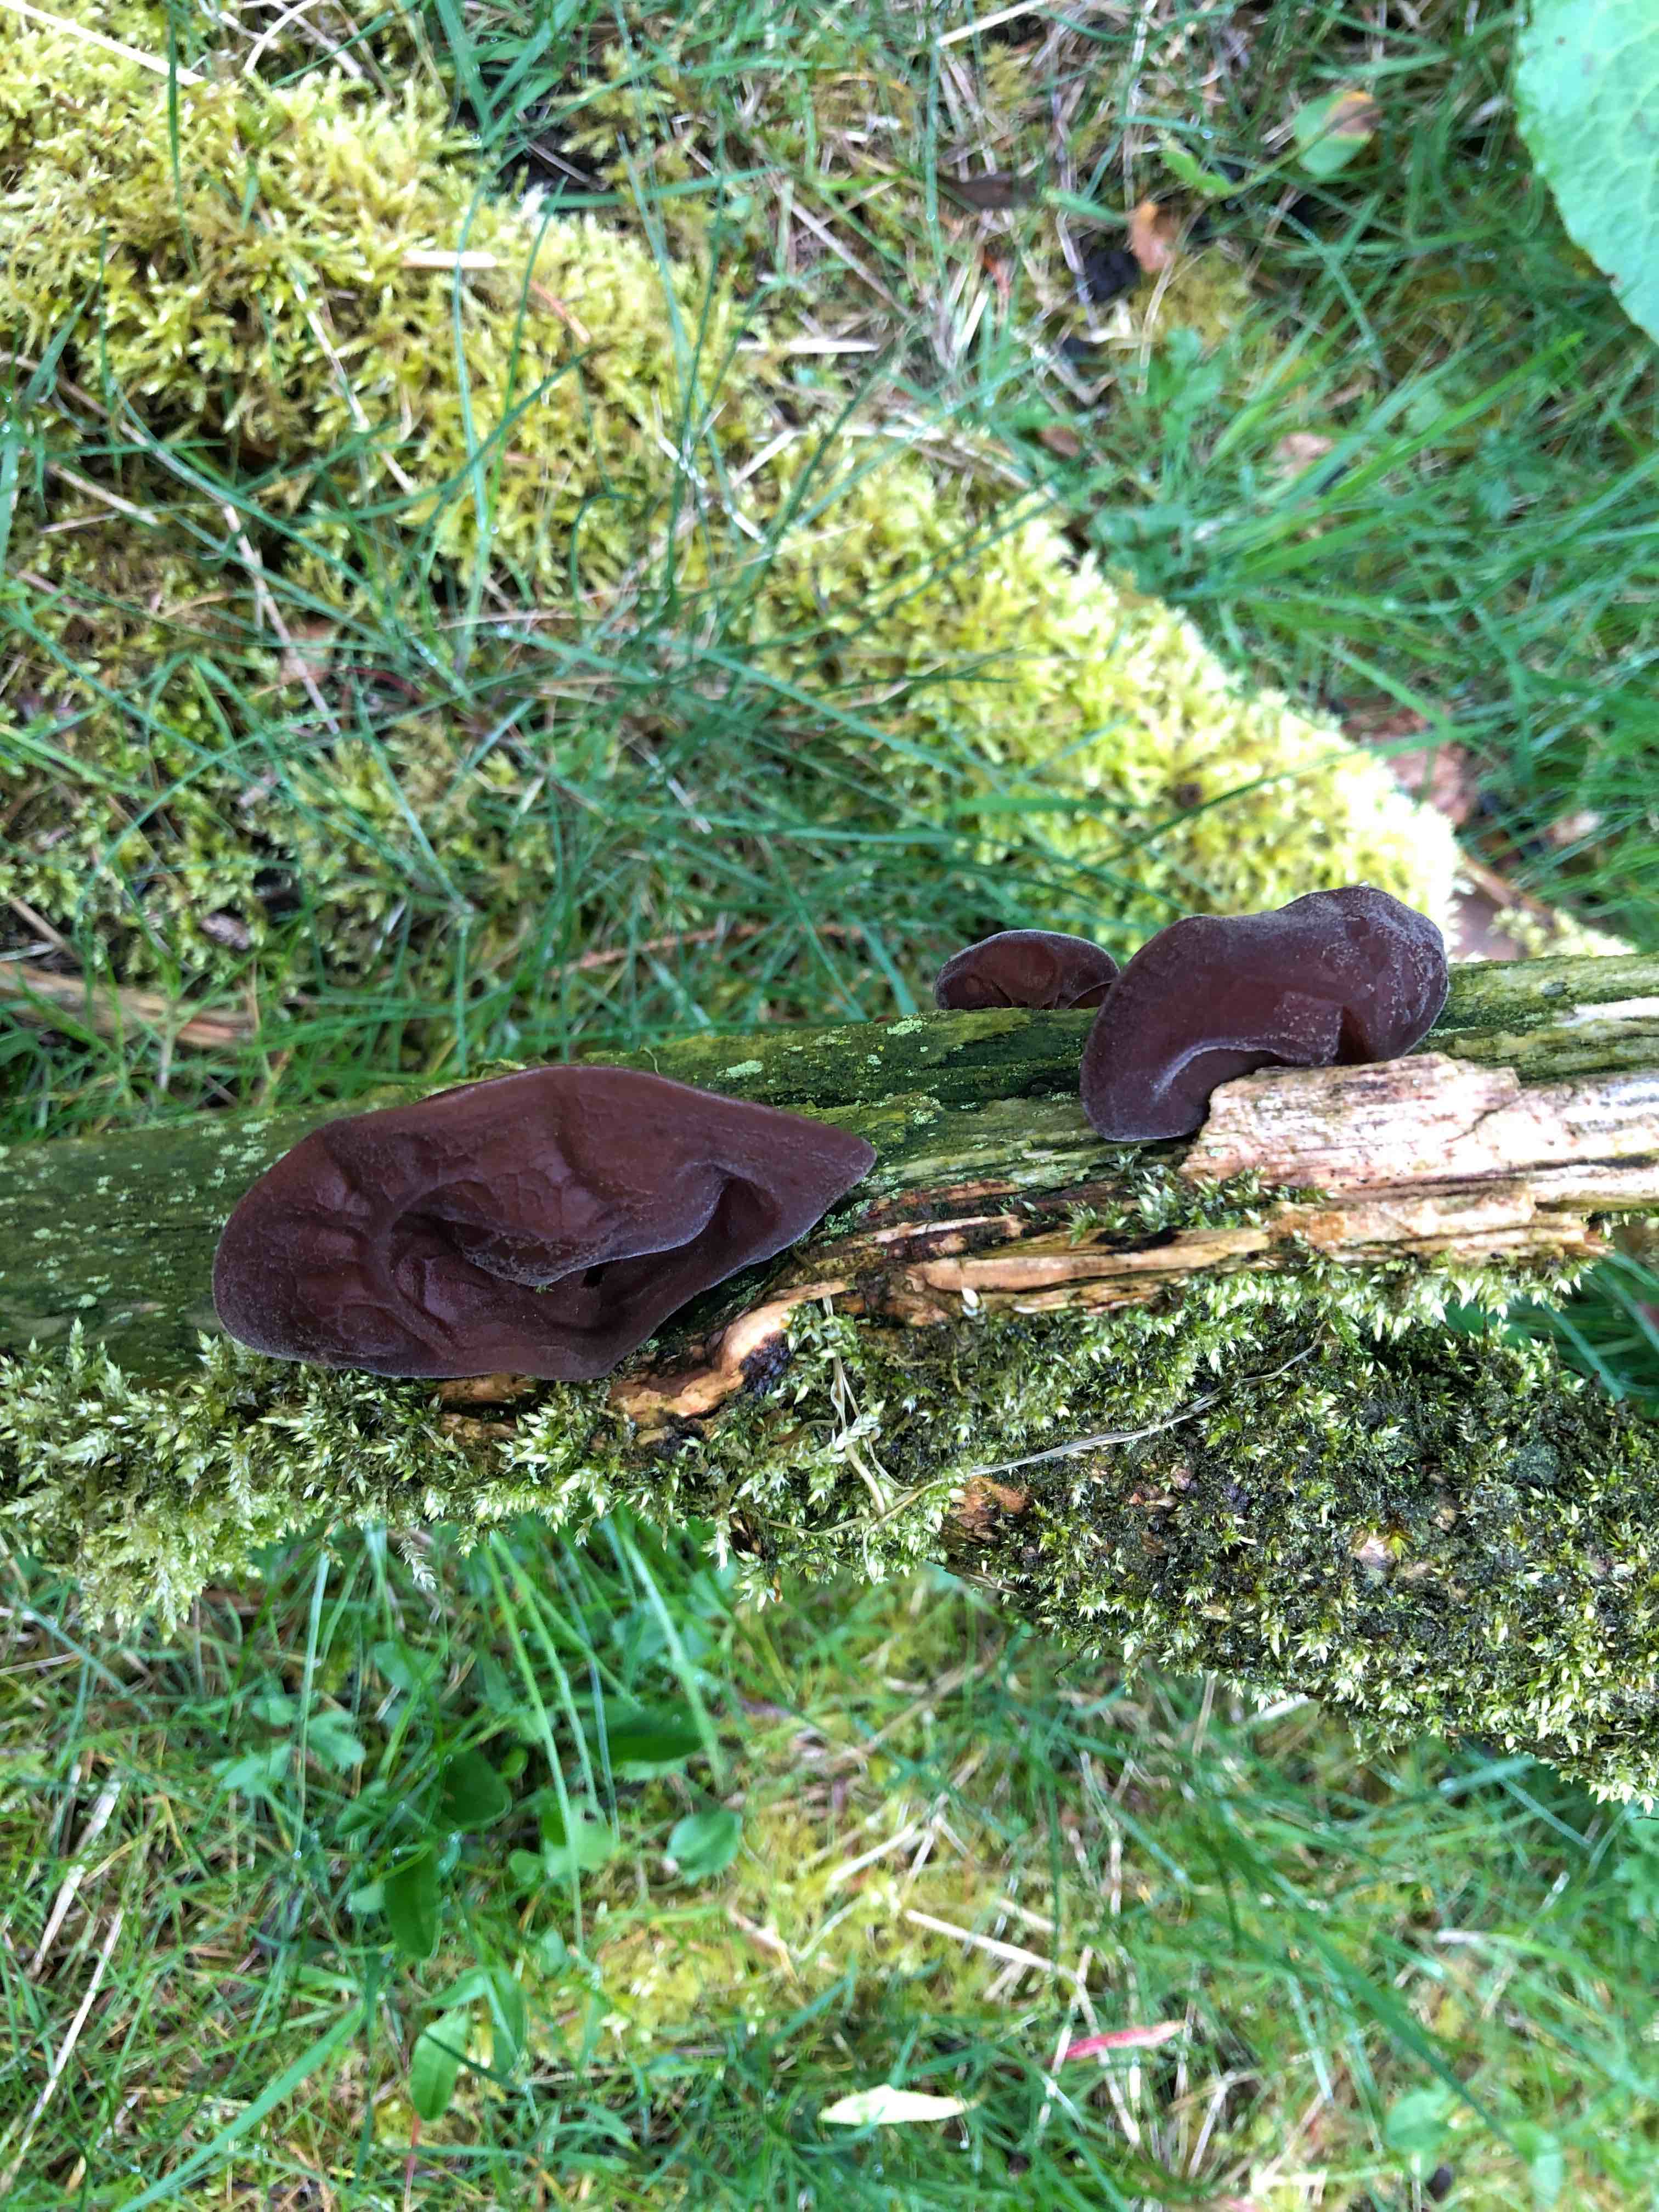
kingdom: Fungi
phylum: Basidiomycota
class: Agaricomycetes
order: Auriculariales
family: Auriculariaceae
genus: Auricularia
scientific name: Auricularia auricula-judae
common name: almindelig judasøre
